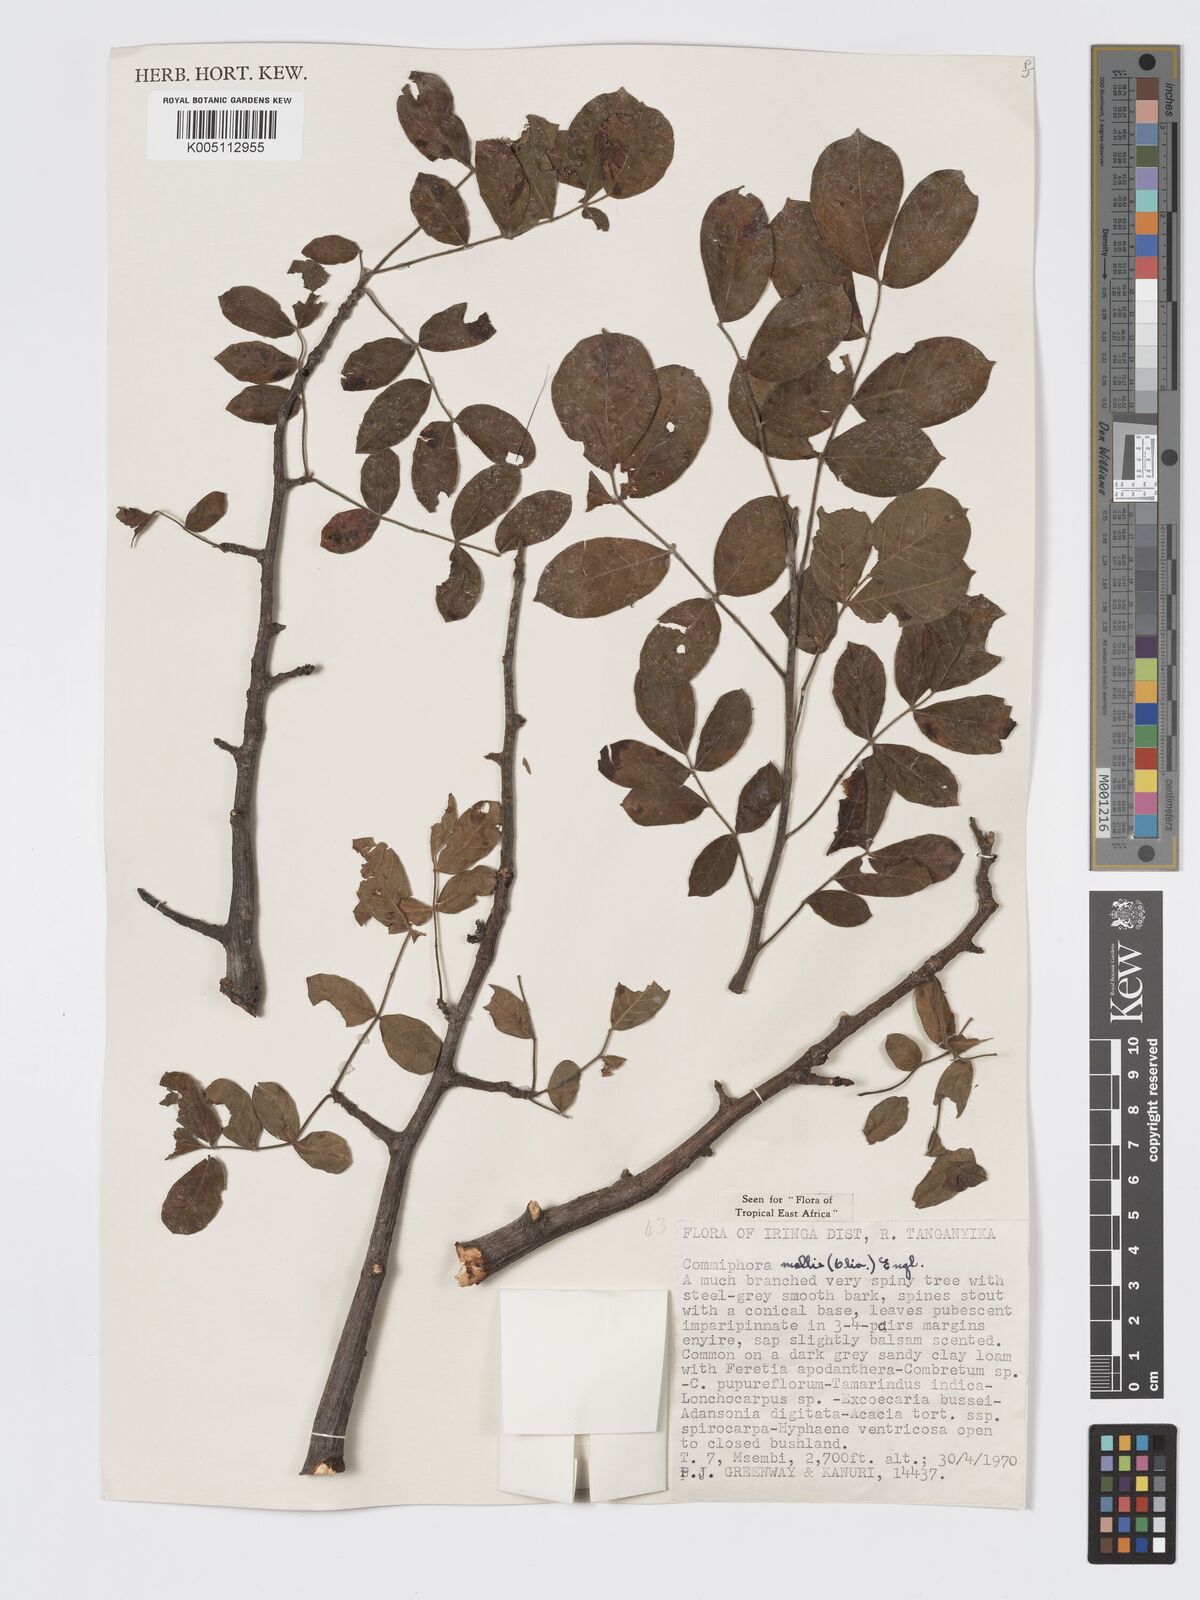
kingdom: Plantae
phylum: Tracheophyta
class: Magnoliopsida
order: Sapindales
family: Burseraceae
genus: Commiphora
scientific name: Commiphora
